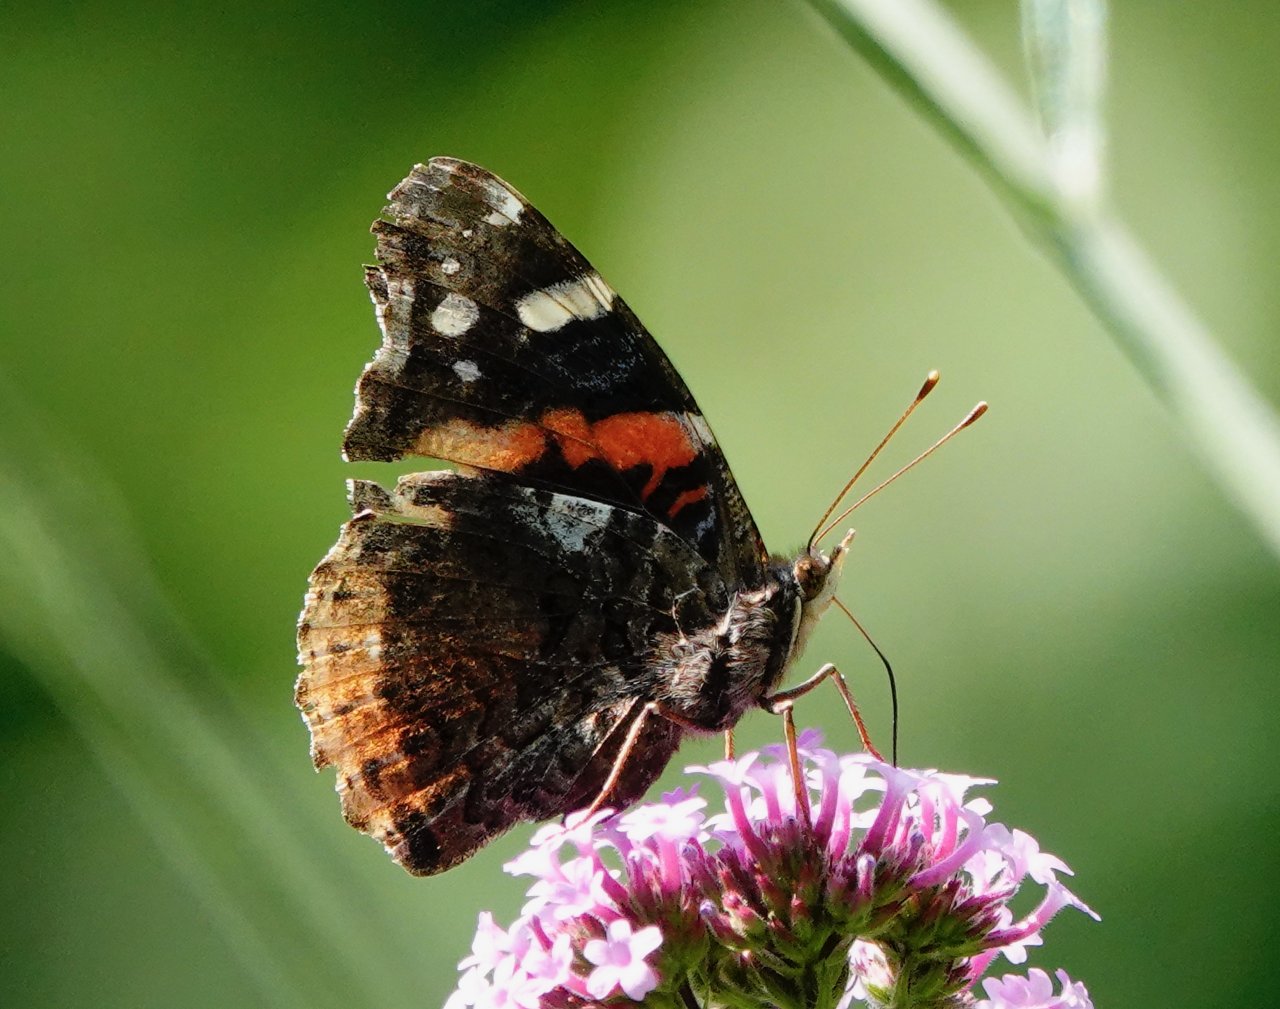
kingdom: Animalia
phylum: Arthropoda
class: Insecta
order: Lepidoptera
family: Nymphalidae
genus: Vanessa
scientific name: Vanessa atalanta
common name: Red Admiral
